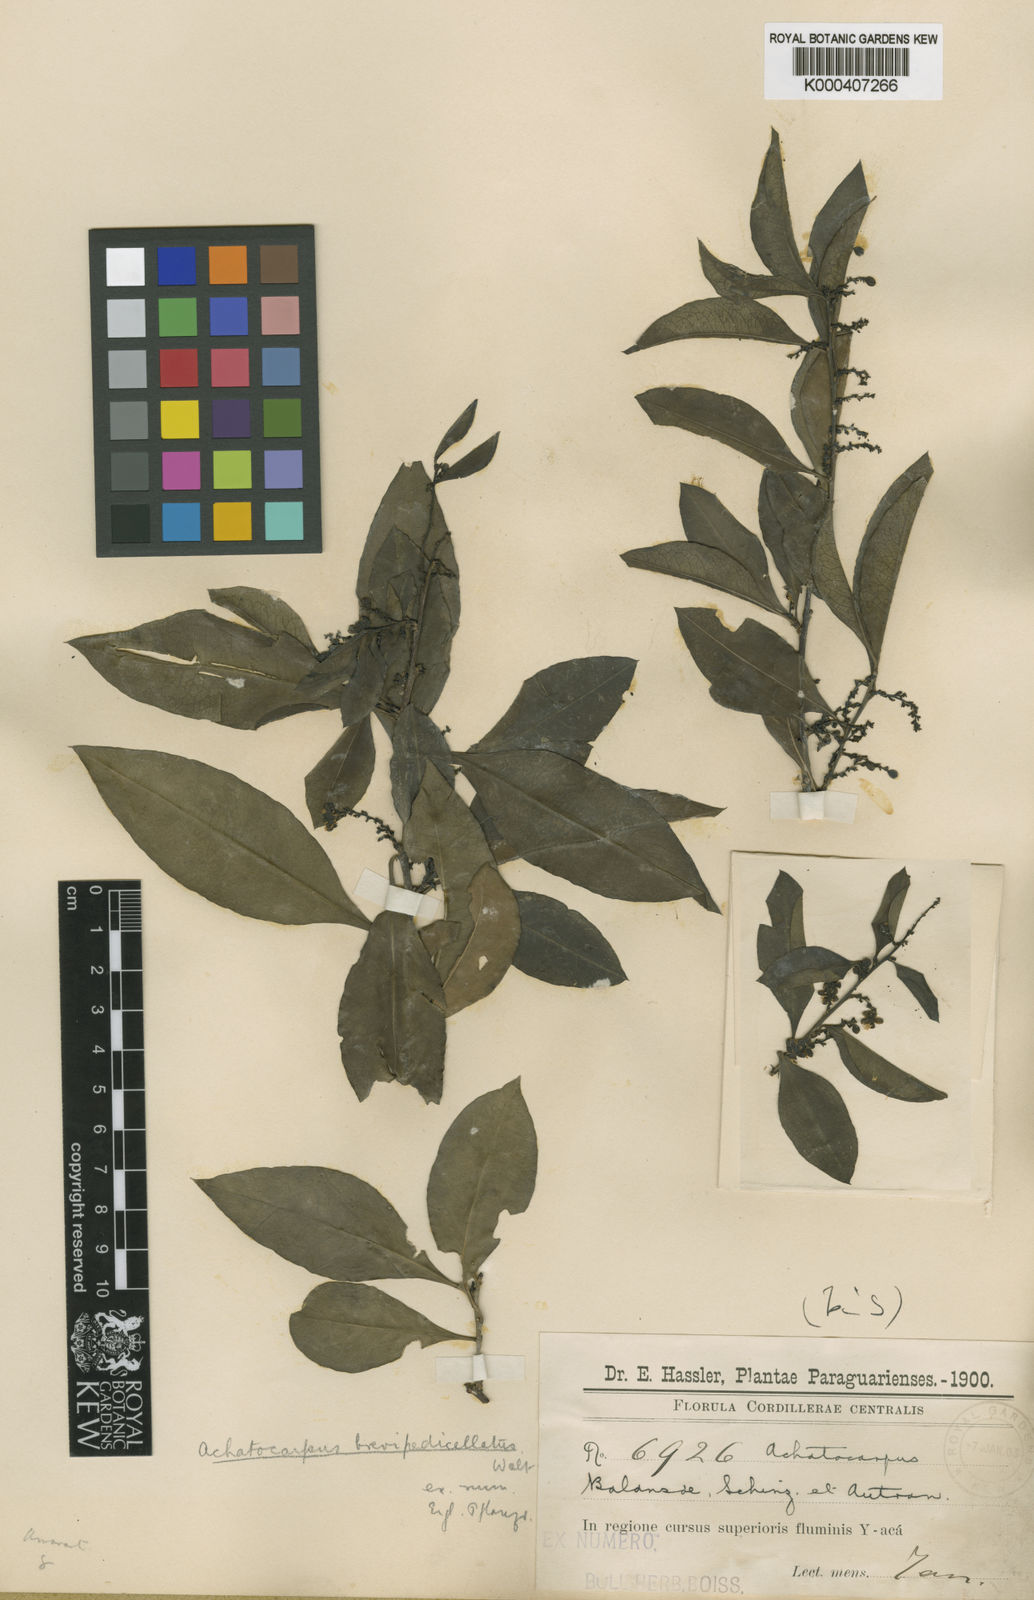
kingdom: Plantae
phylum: Tracheophyta
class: Magnoliopsida
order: Caryophyllales
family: Achatocarpaceae
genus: Achatocarpus
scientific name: Achatocarpus brevipedicellatus
